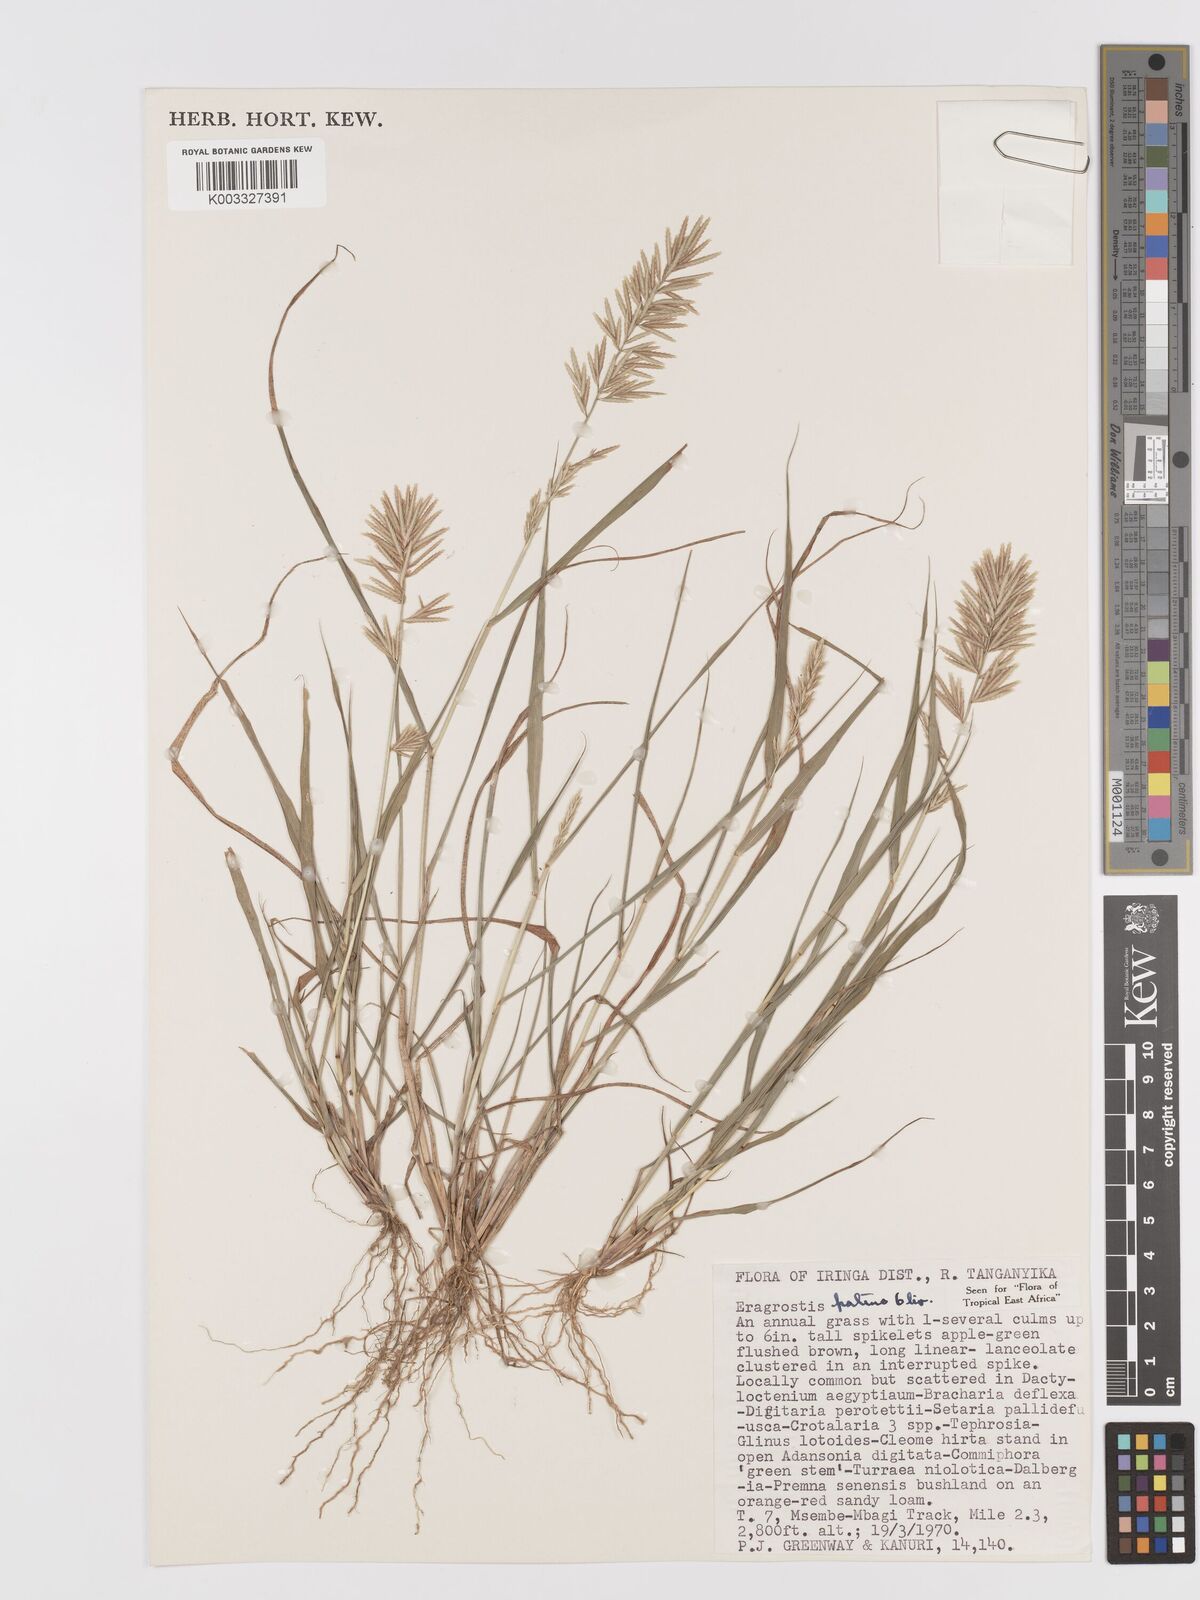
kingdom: Plantae
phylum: Tracheophyta
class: Liliopsida
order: Poales
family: Poaceae
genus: Eragrostis
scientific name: Eragrostis patens
